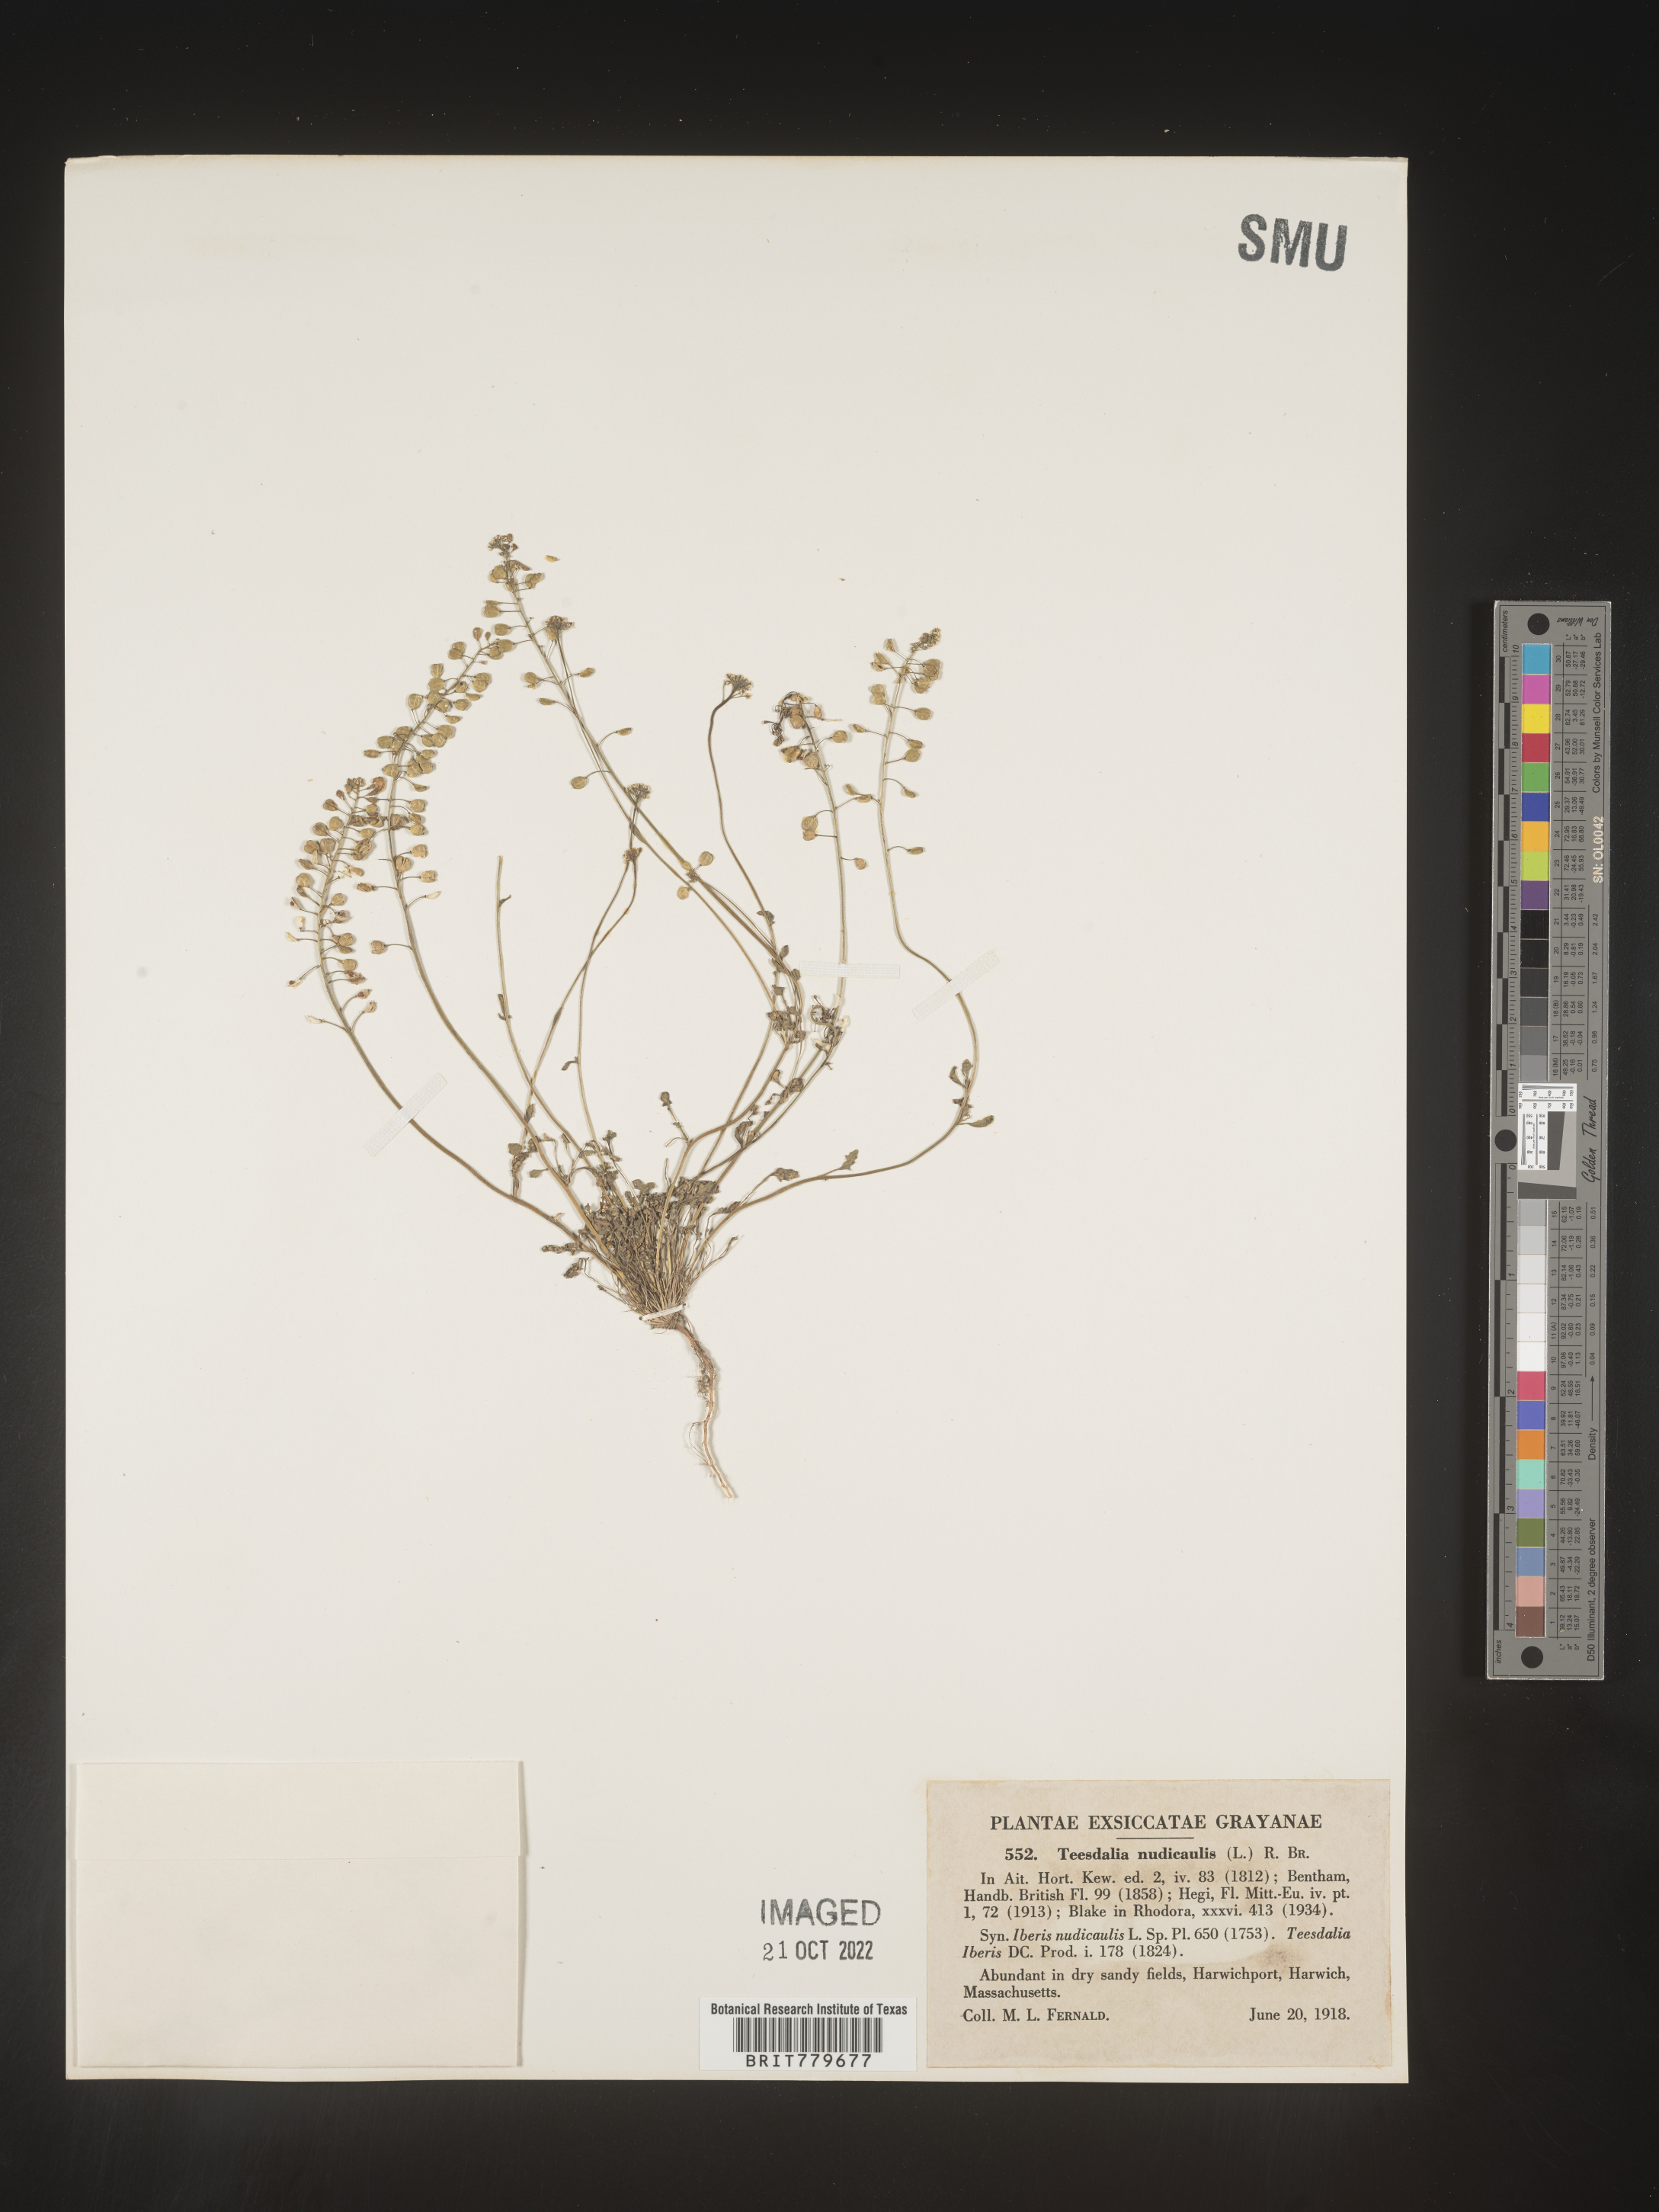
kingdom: Plantae
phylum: Tracheophyta
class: Magnoliopsida
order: Brassicales
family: Brassicaceae
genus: Teesdalia
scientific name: Teesdalia
